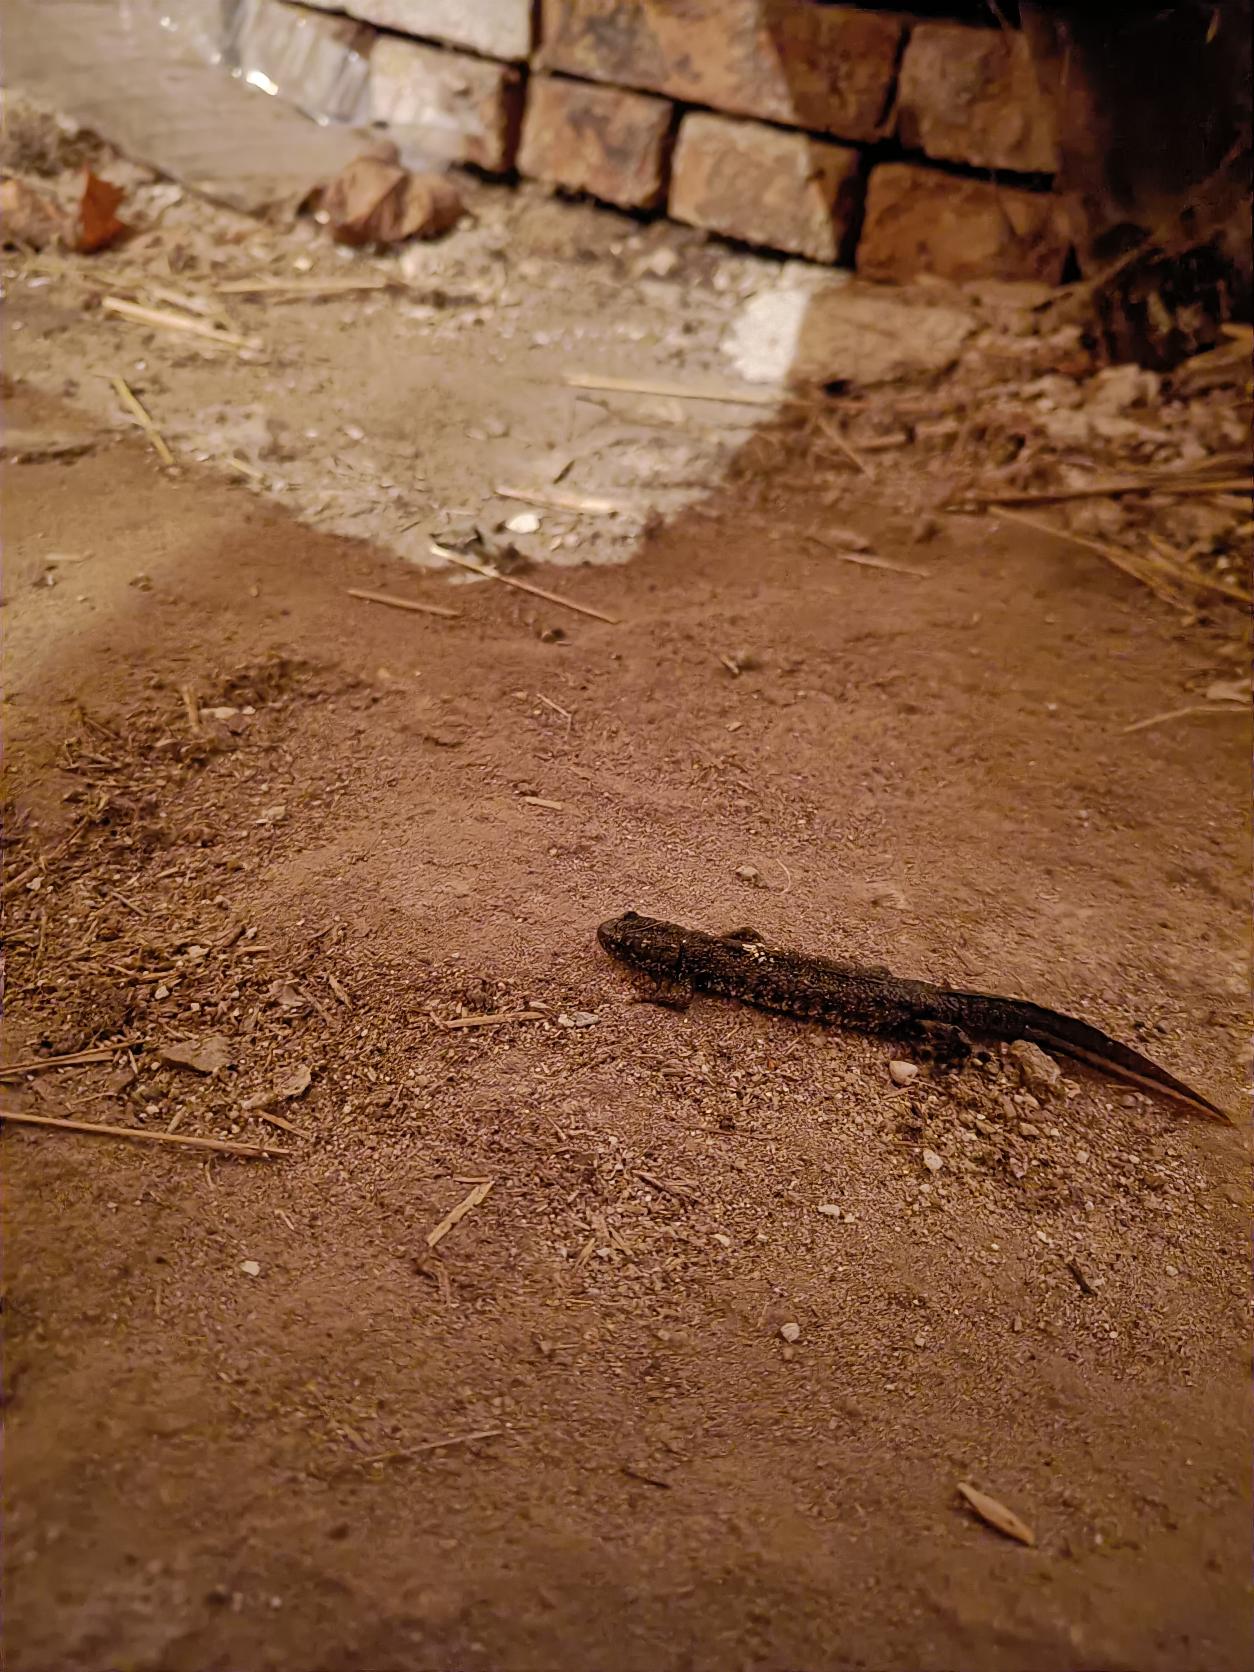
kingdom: Animalia
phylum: Chordata
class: Amphibia
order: Caudata
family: Salamandridae
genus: Triturus
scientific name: Triturus cristatus
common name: Stor vandsalamander
